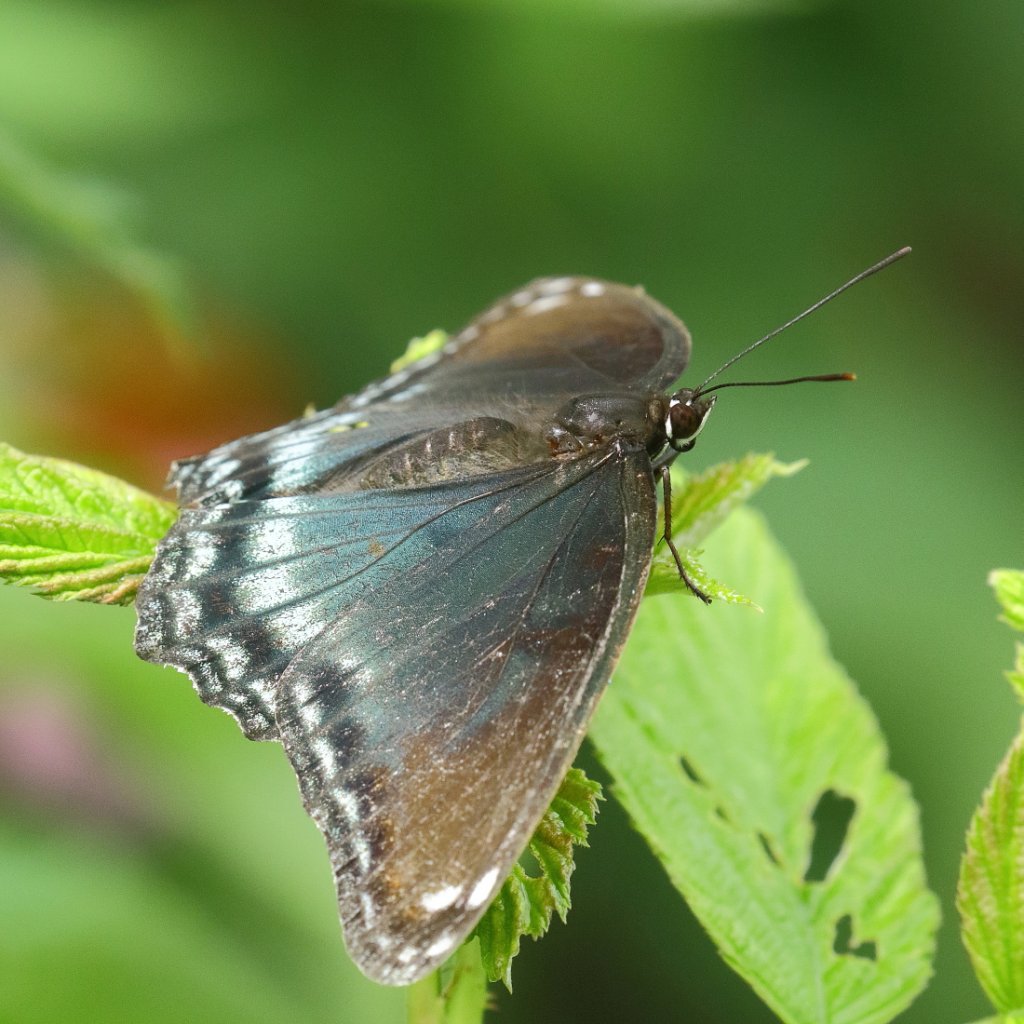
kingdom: Animalia
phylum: Arthropoda
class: Insecta
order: Lepidoptera
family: Nymphalidae
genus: Limenitis
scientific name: Limenitis astyanax
